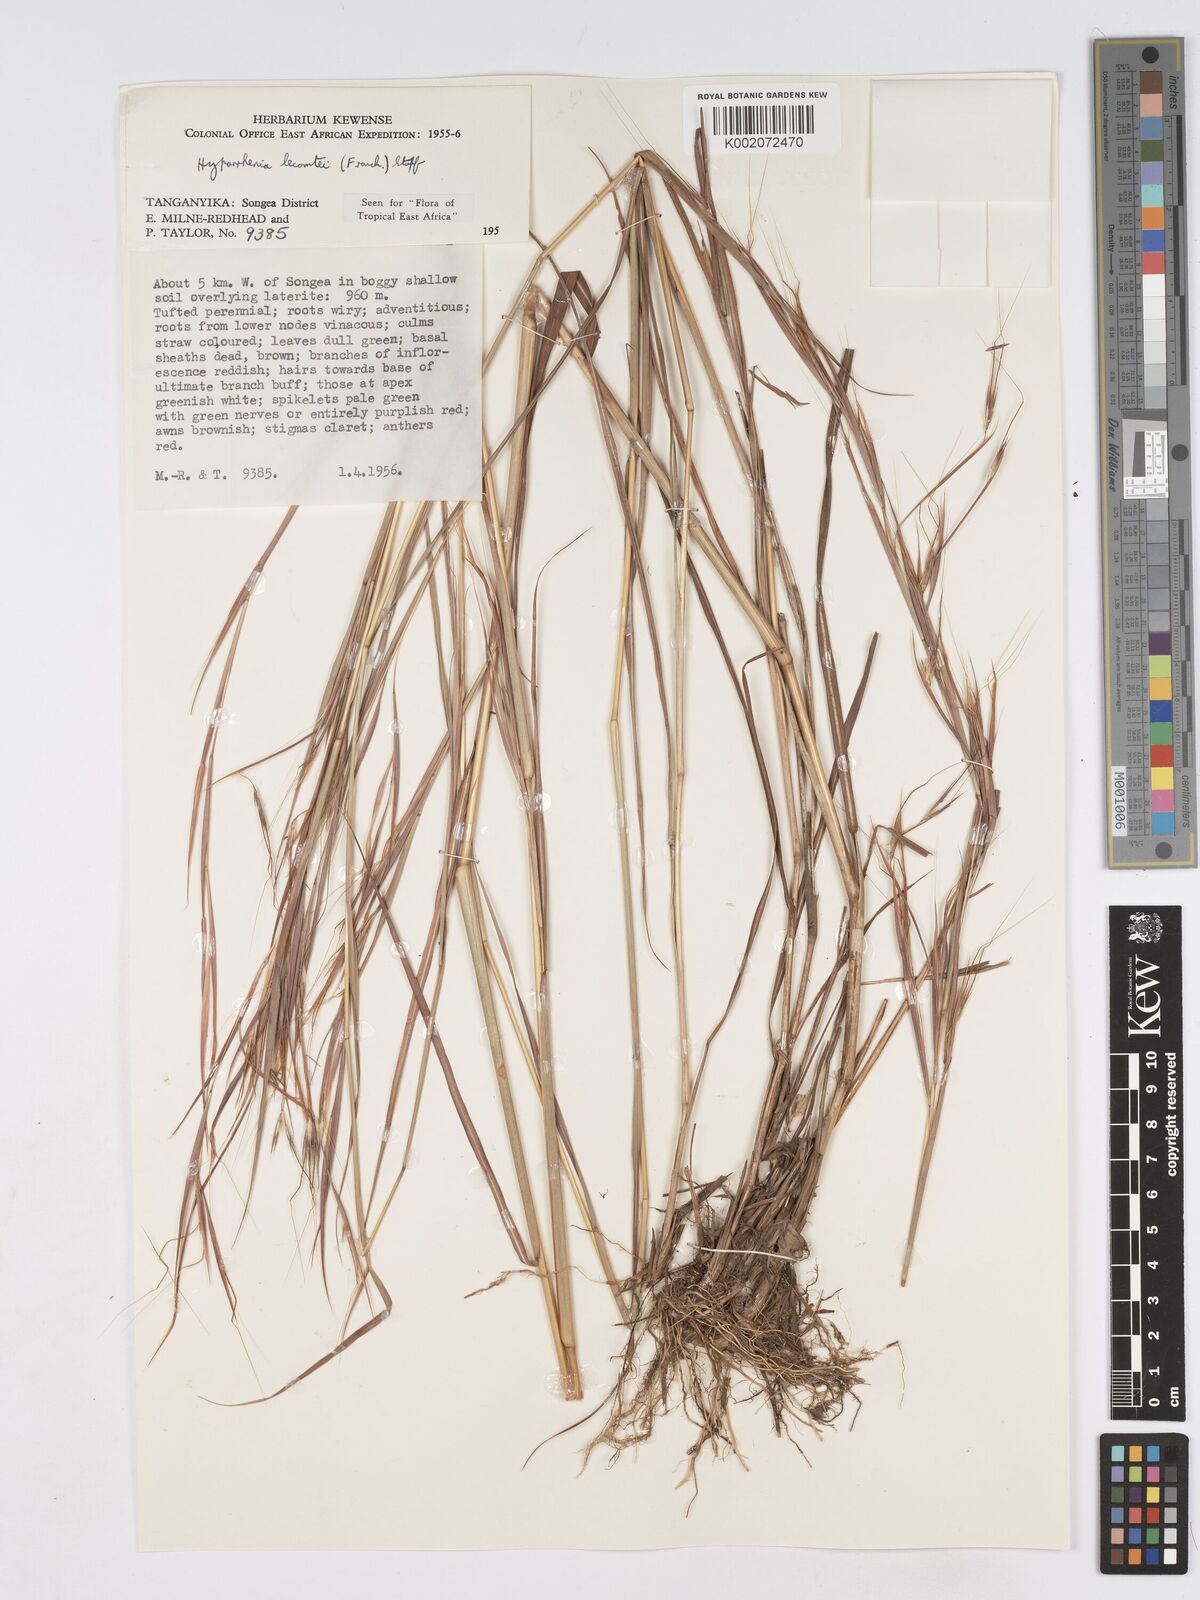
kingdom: Plantae
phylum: Tracheophyta
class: Liliopsida
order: Poales
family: Poaceae
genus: Hyparrhenia
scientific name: Hyparrhenia newtonii
